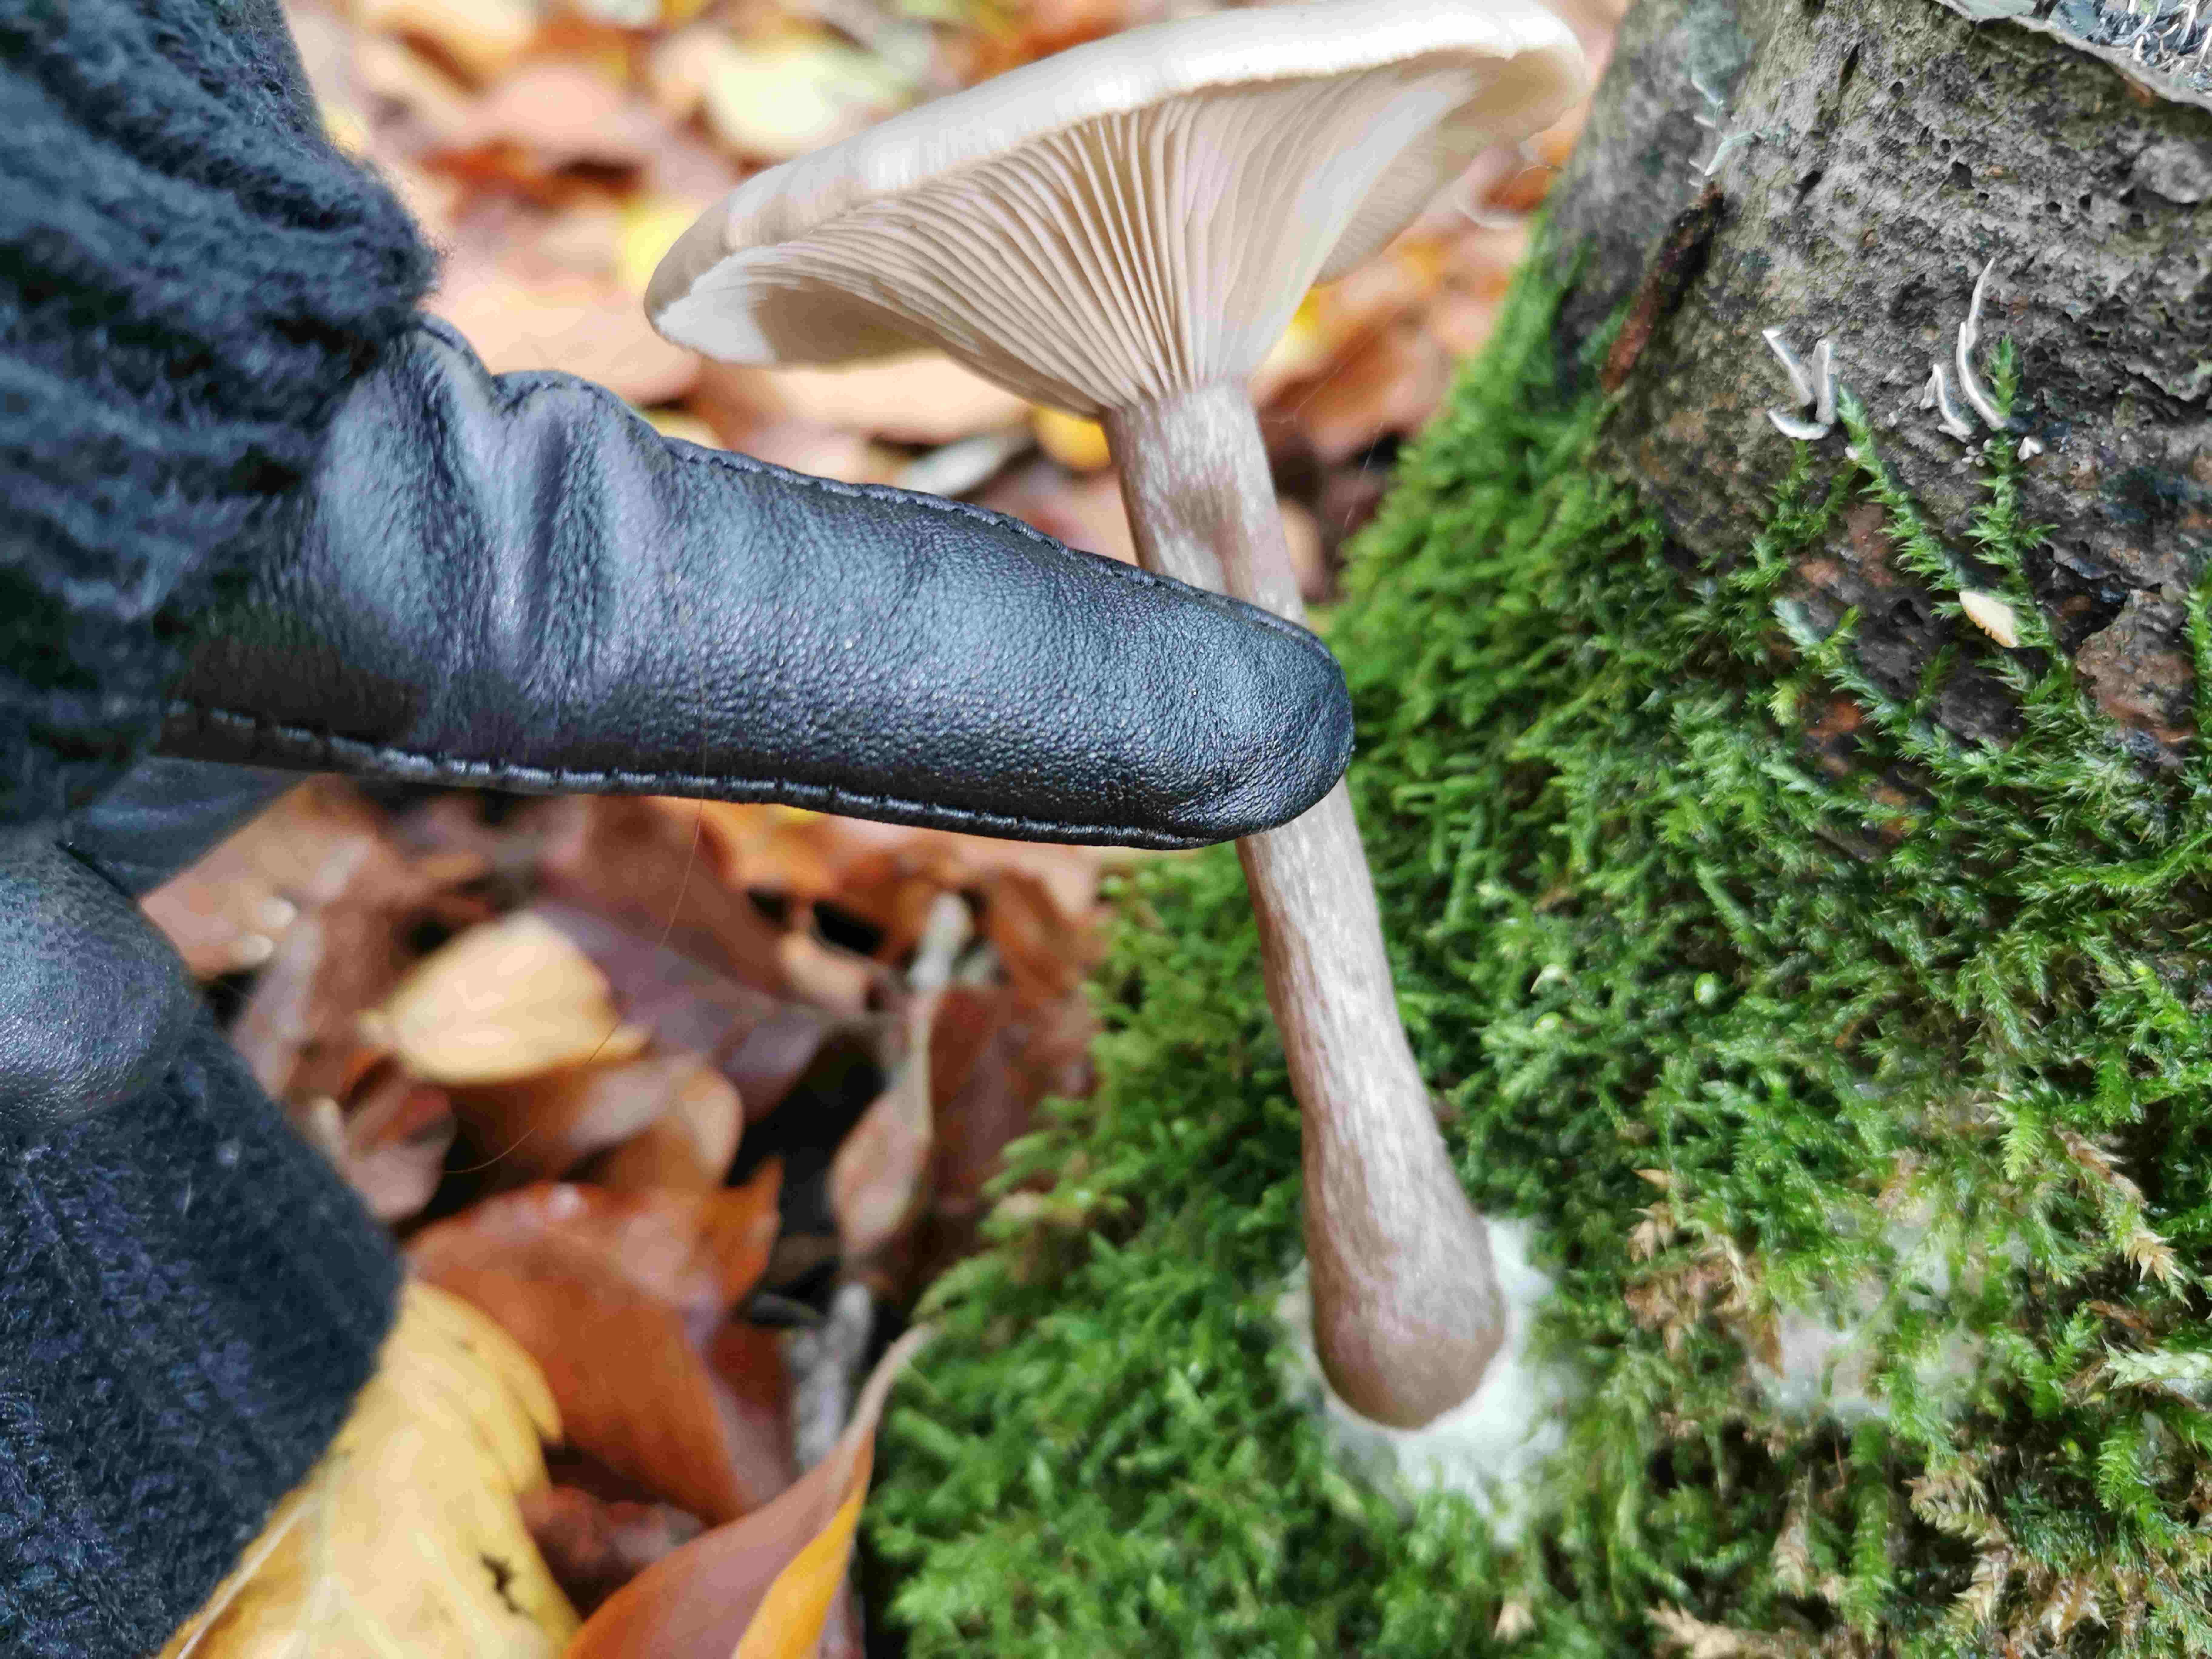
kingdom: Fungi
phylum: Basidiomycota
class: Agaricomycetes
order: Agaricales
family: Pseudoclitocybaceae
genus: Pseudoclitocybe
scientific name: Pseudoclitocybe cyathiformis
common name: almindelig bægertragthat
